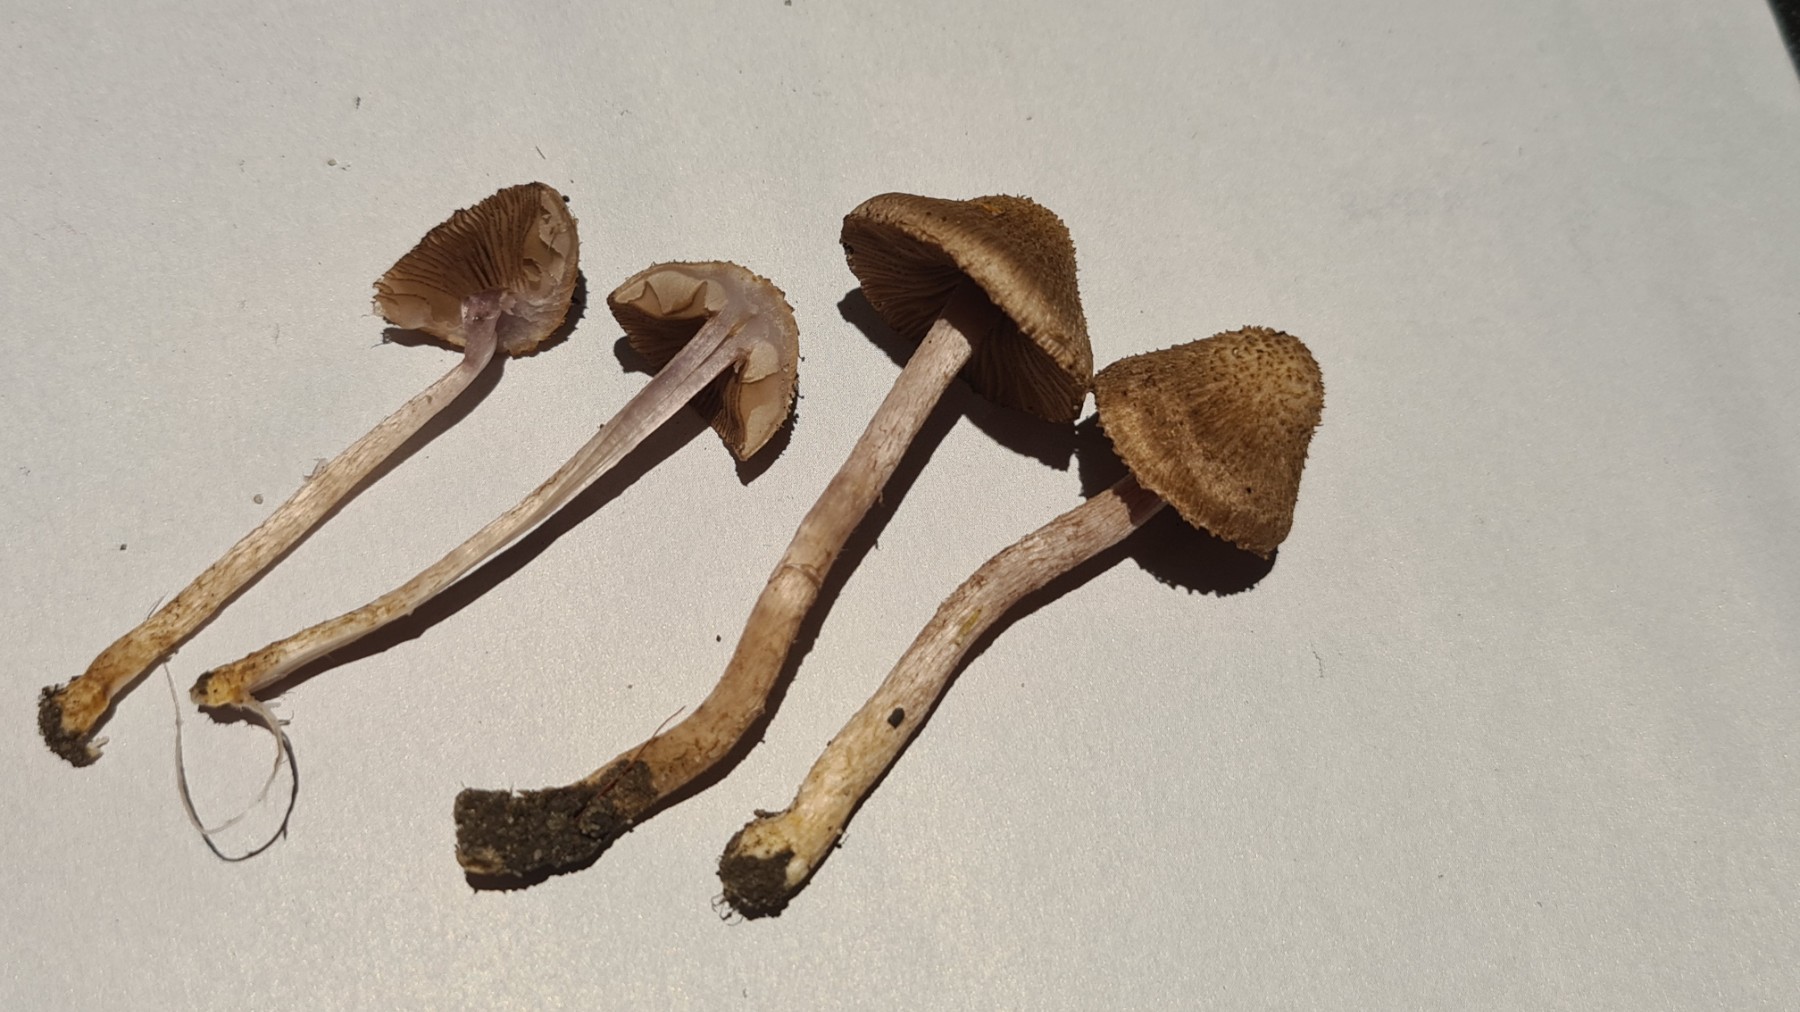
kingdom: Fungi
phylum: Basidiomycota
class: Agaricomycetes
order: Agaricales
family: Inocybaceae
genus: Inocybe
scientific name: Inocybe cincinnata
